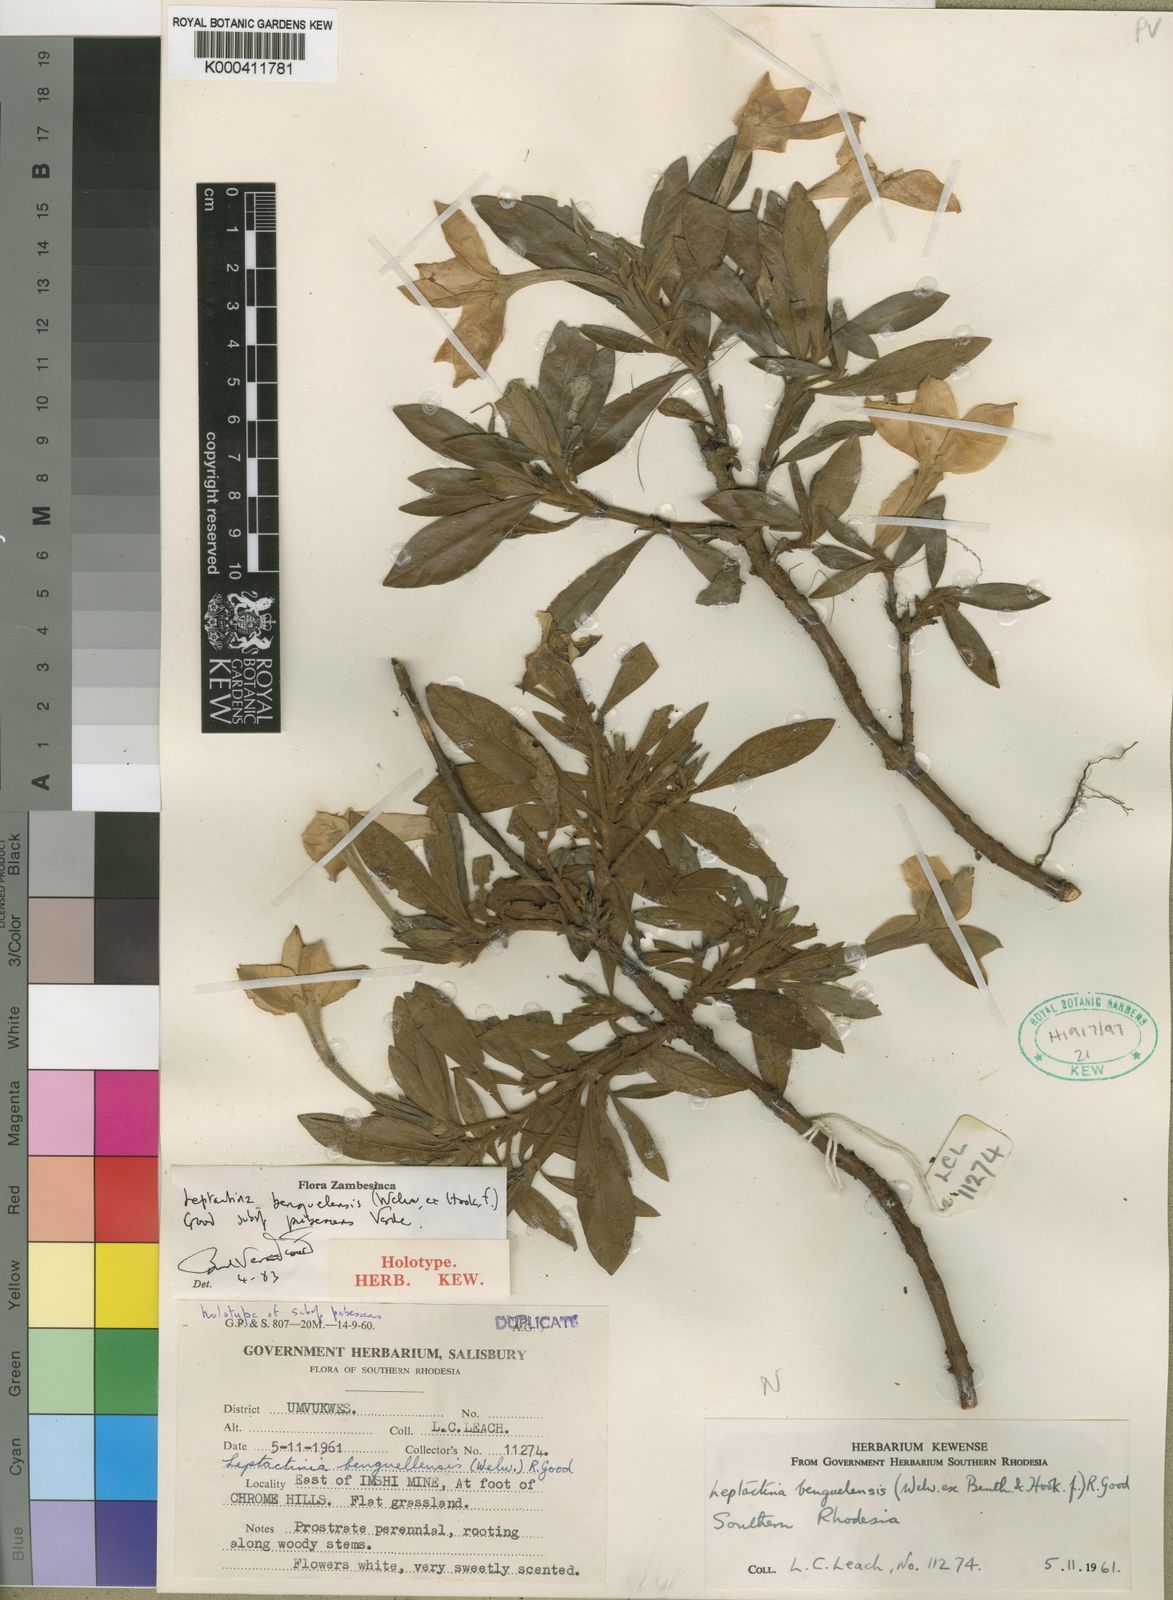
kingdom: Plantae
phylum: Tracheophyta
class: Magnoliopsida
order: Gentianales
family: Rubiaceae
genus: Leptactina
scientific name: Leptactina benguelensis
